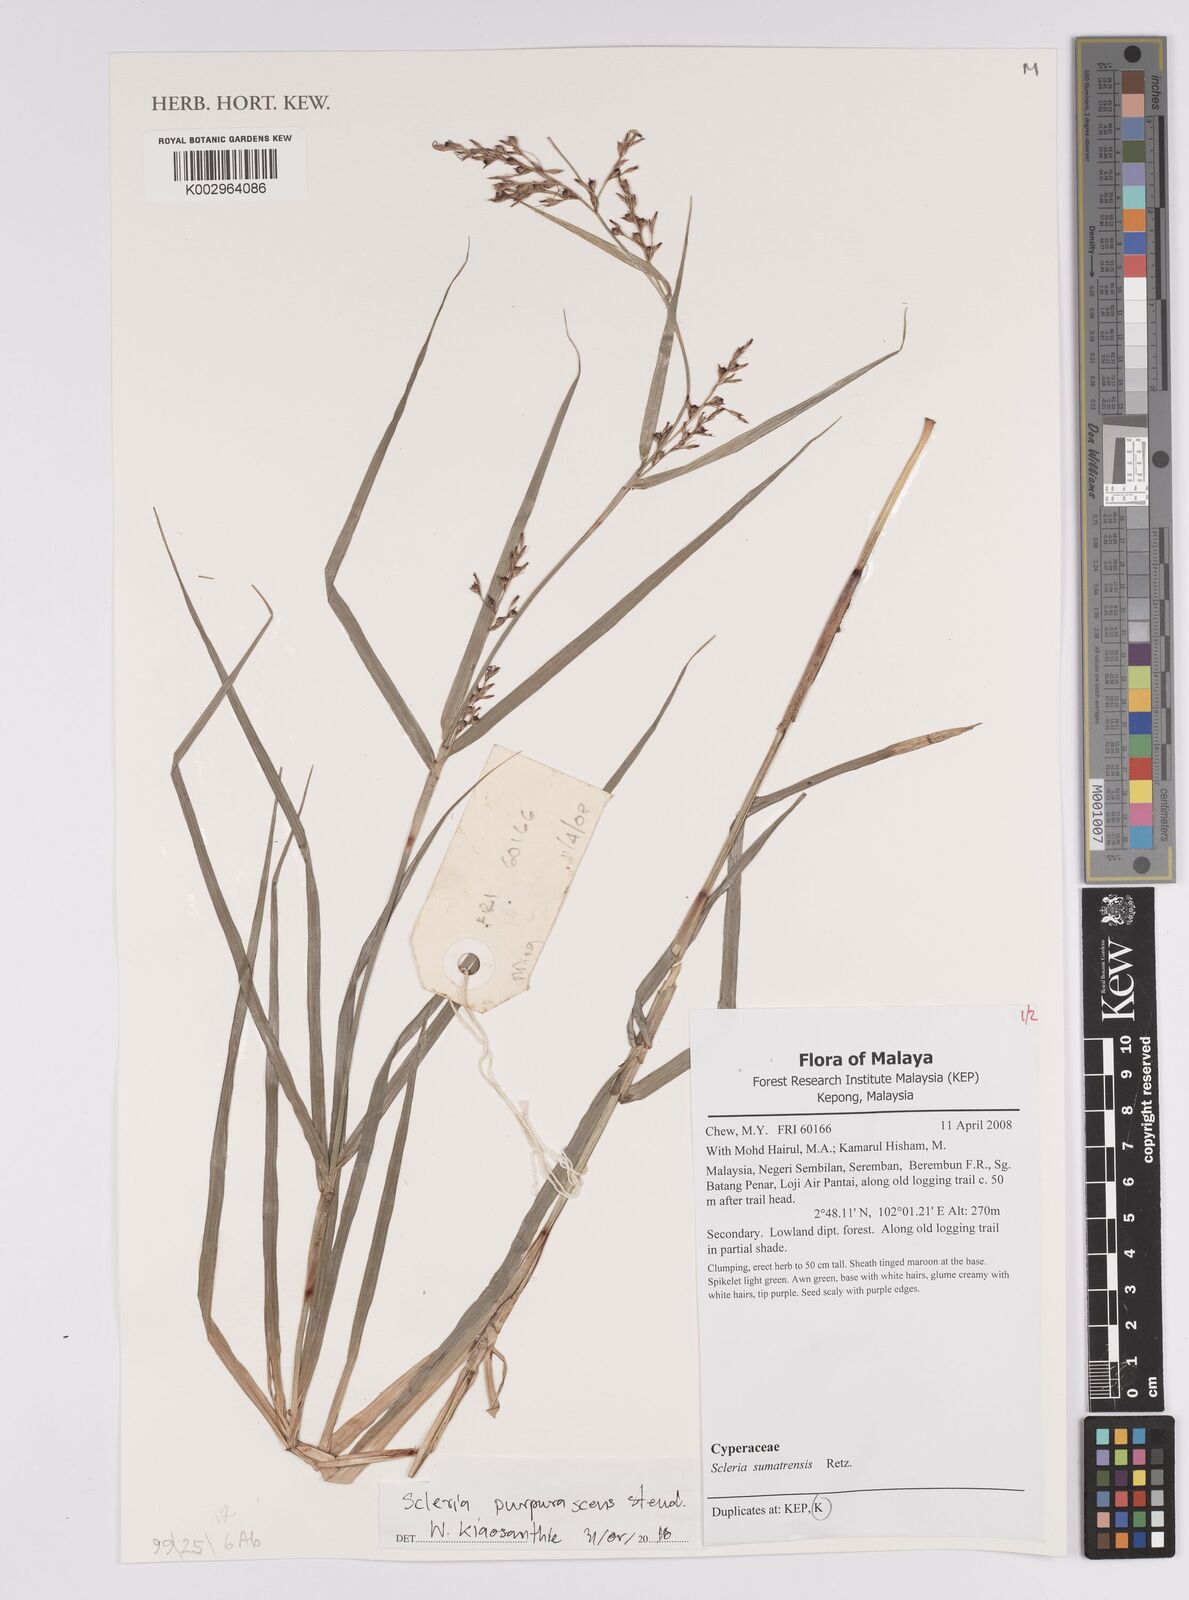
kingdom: Plantae
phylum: Tracheophyta
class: Liliopsida
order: Poales
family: Cyperaceae
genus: Scleria
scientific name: Scleria purpurascens
